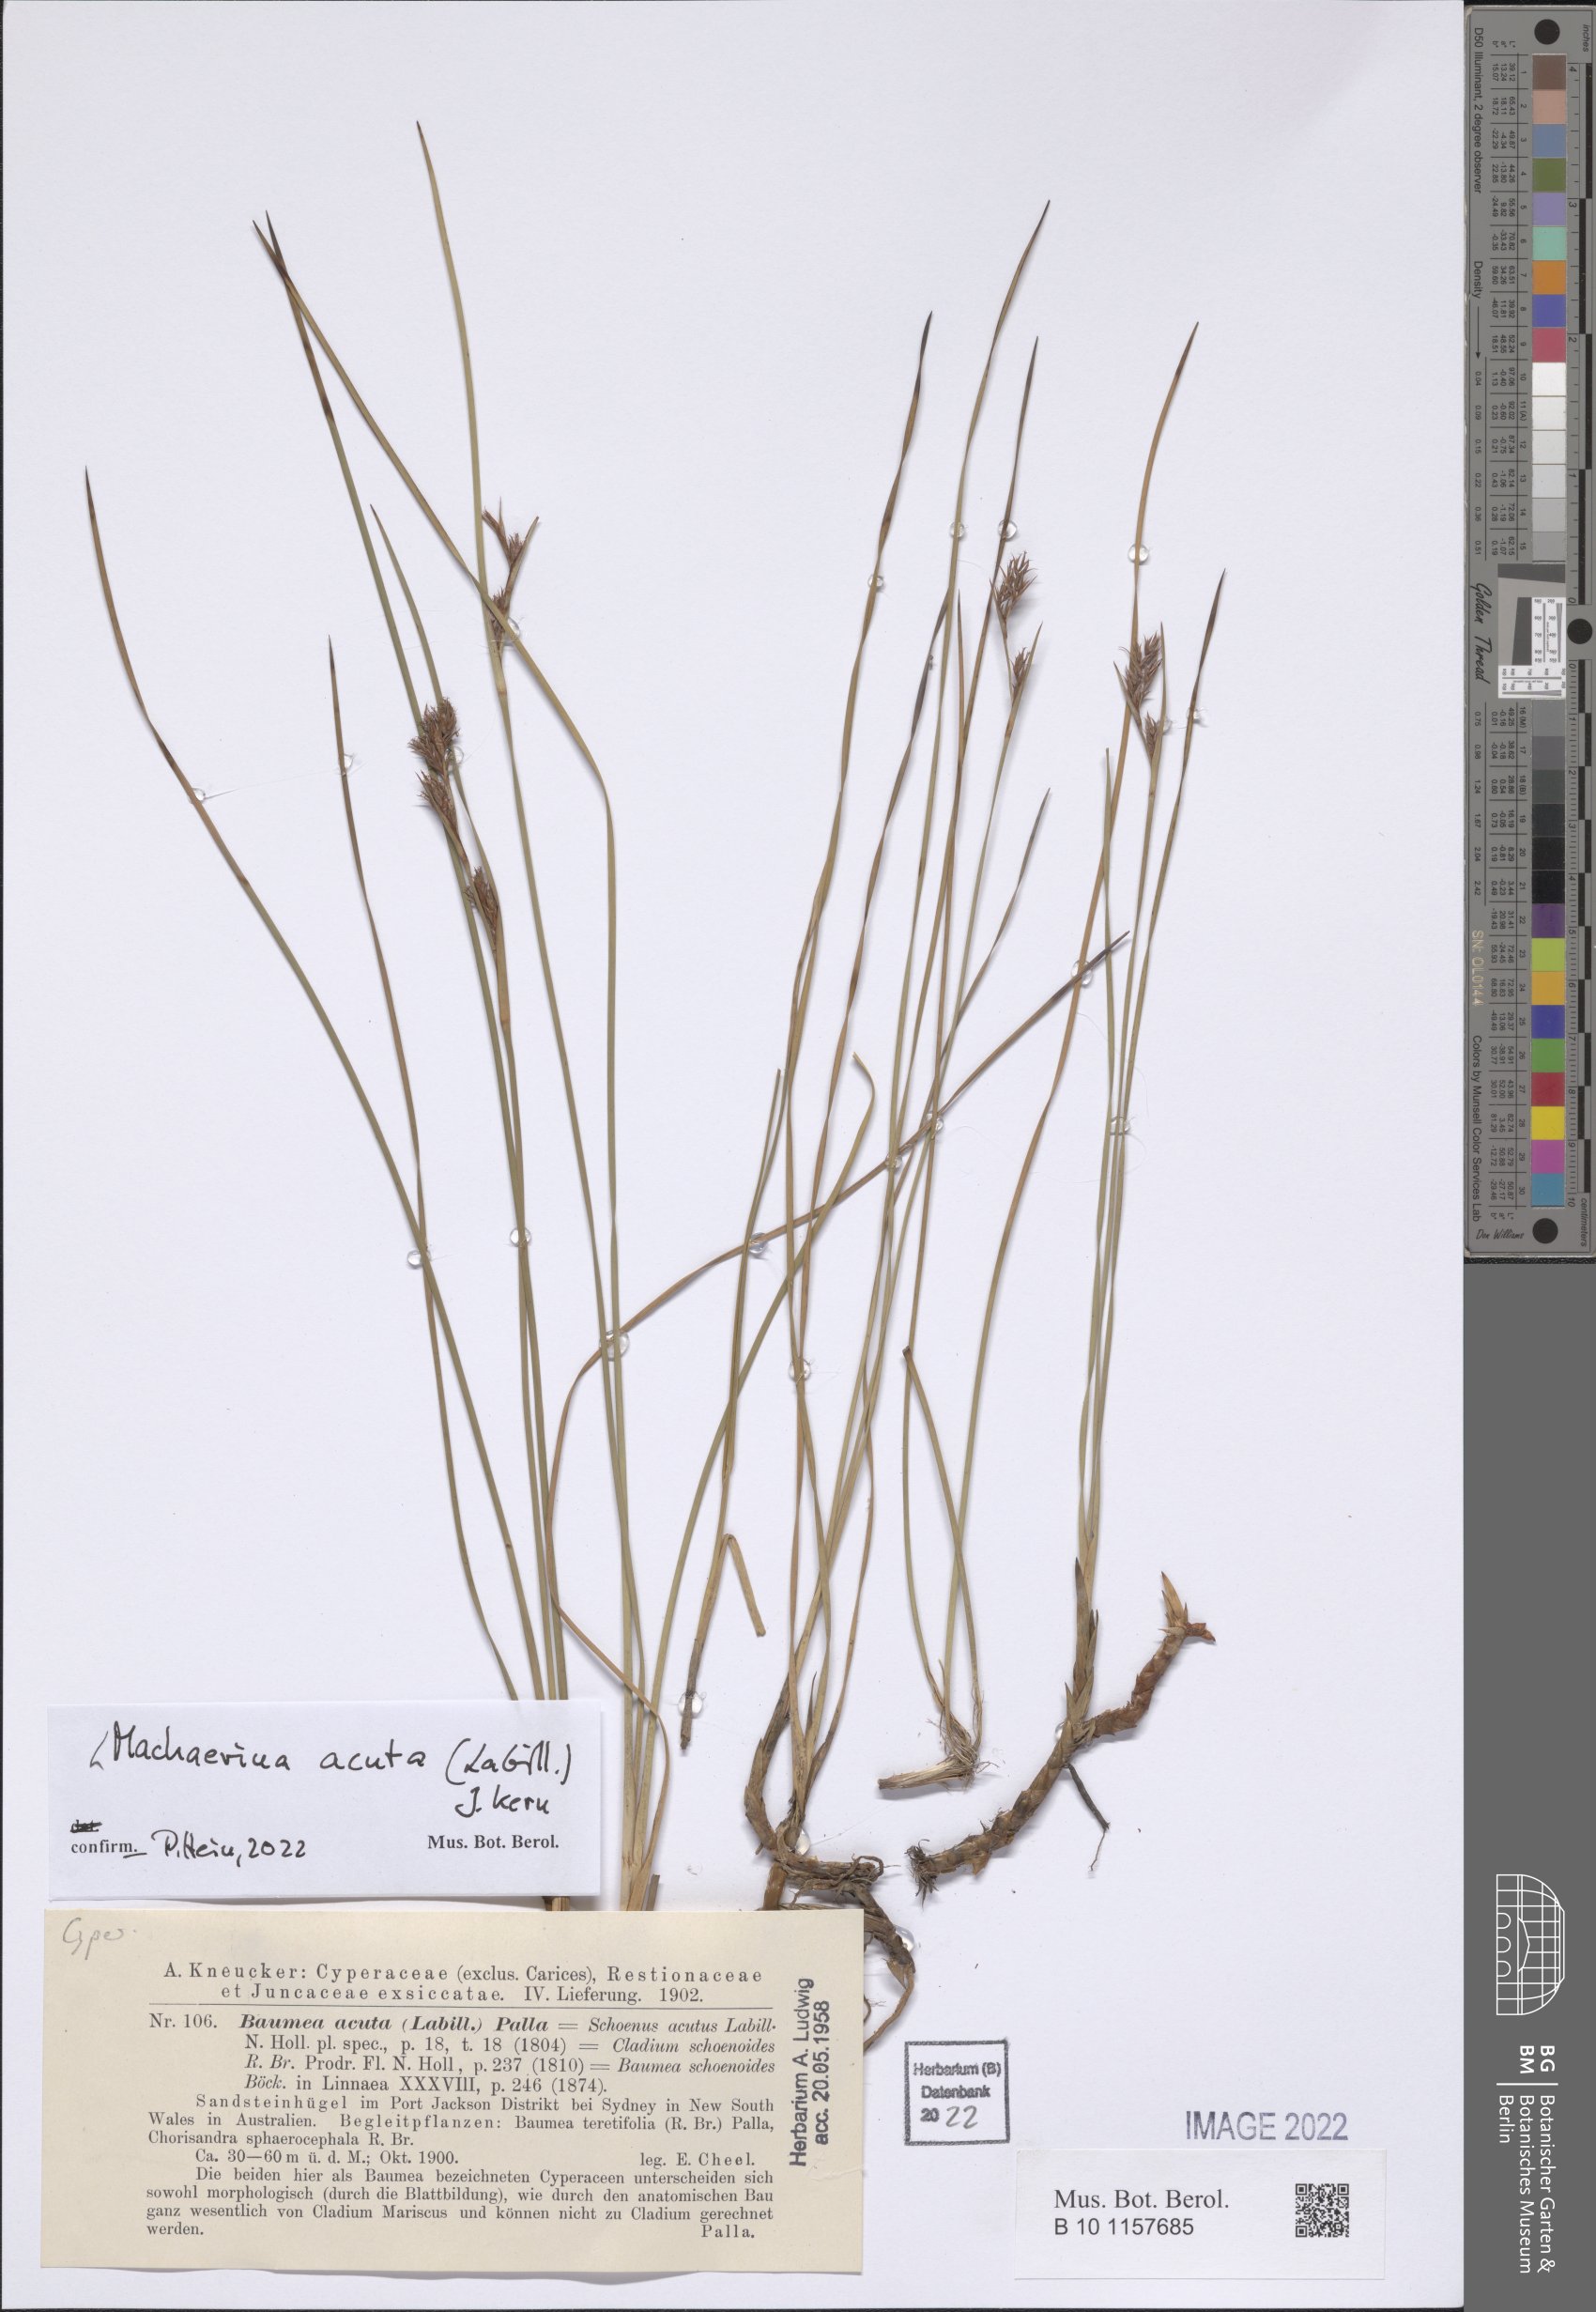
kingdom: Plantae
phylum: Tracheophyta
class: Liliopsida
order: Poales
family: Cyperaceae
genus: Machaerina
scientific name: Machaerina acuta
